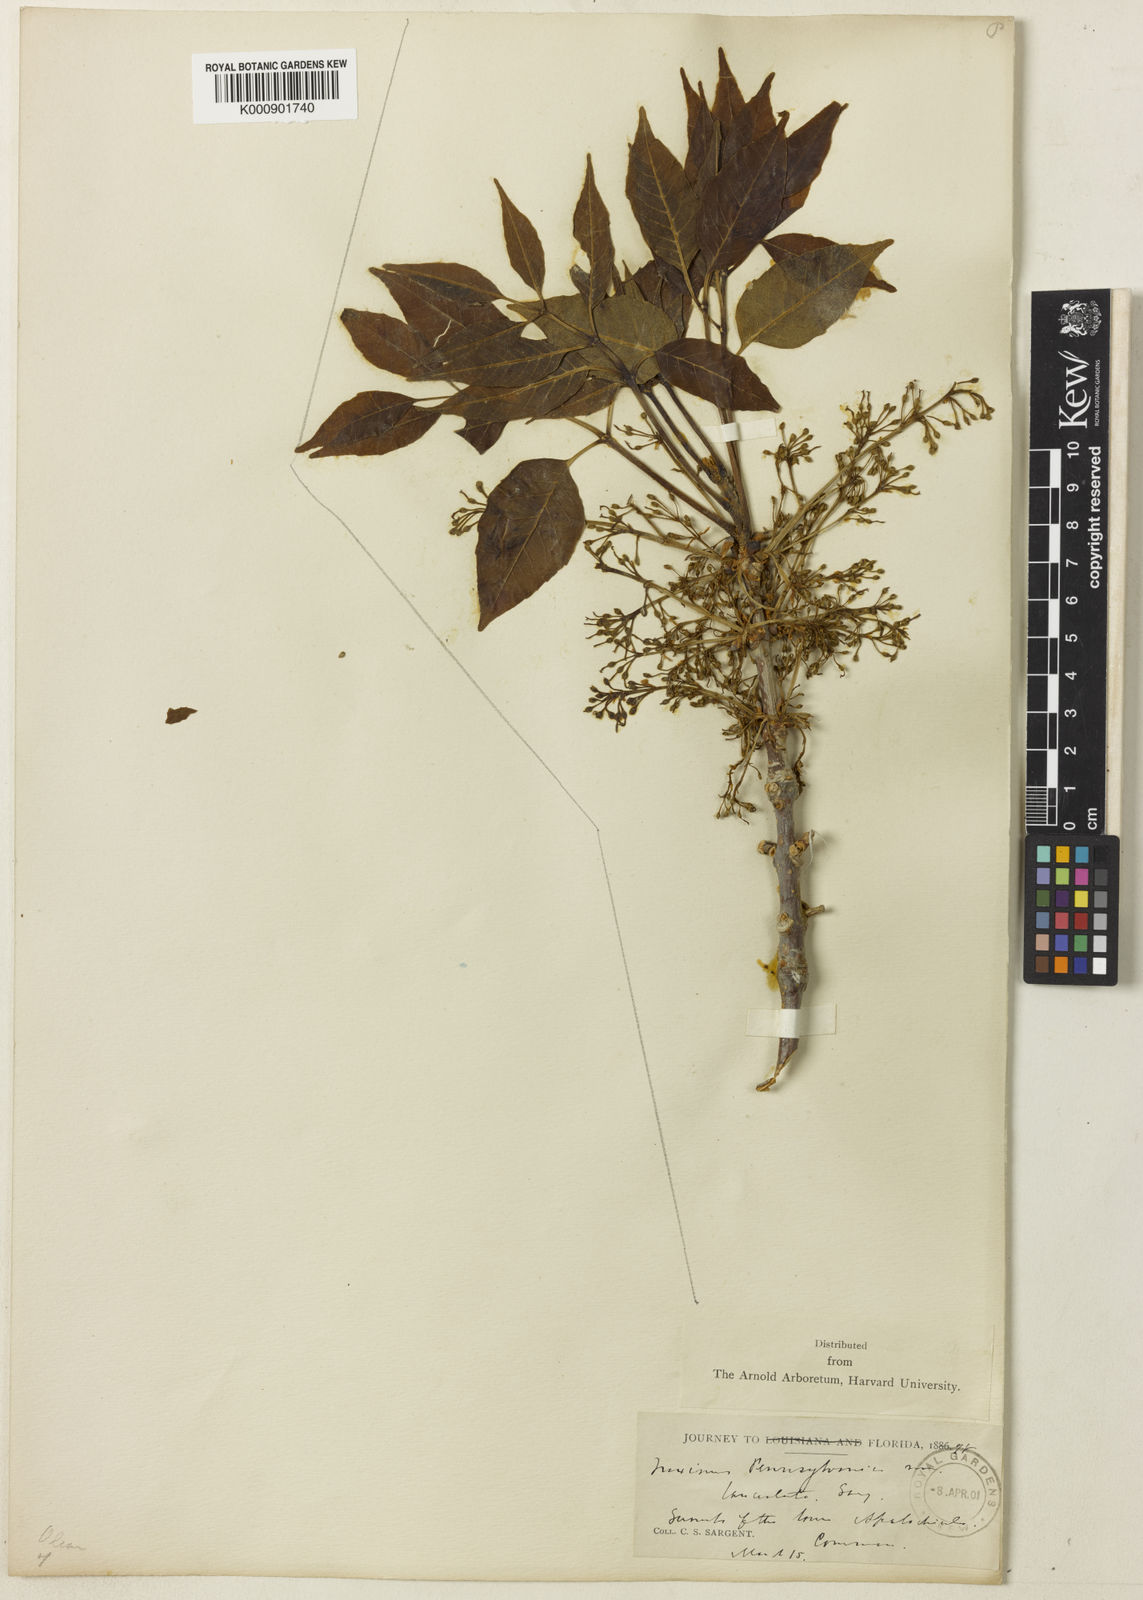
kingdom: Plantae
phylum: Tracheophyta
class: Magnoliopsida
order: Lamiales
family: Oleaceae
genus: Fraxinus
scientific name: Fraxinus pennsylvanica
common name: Green ash
